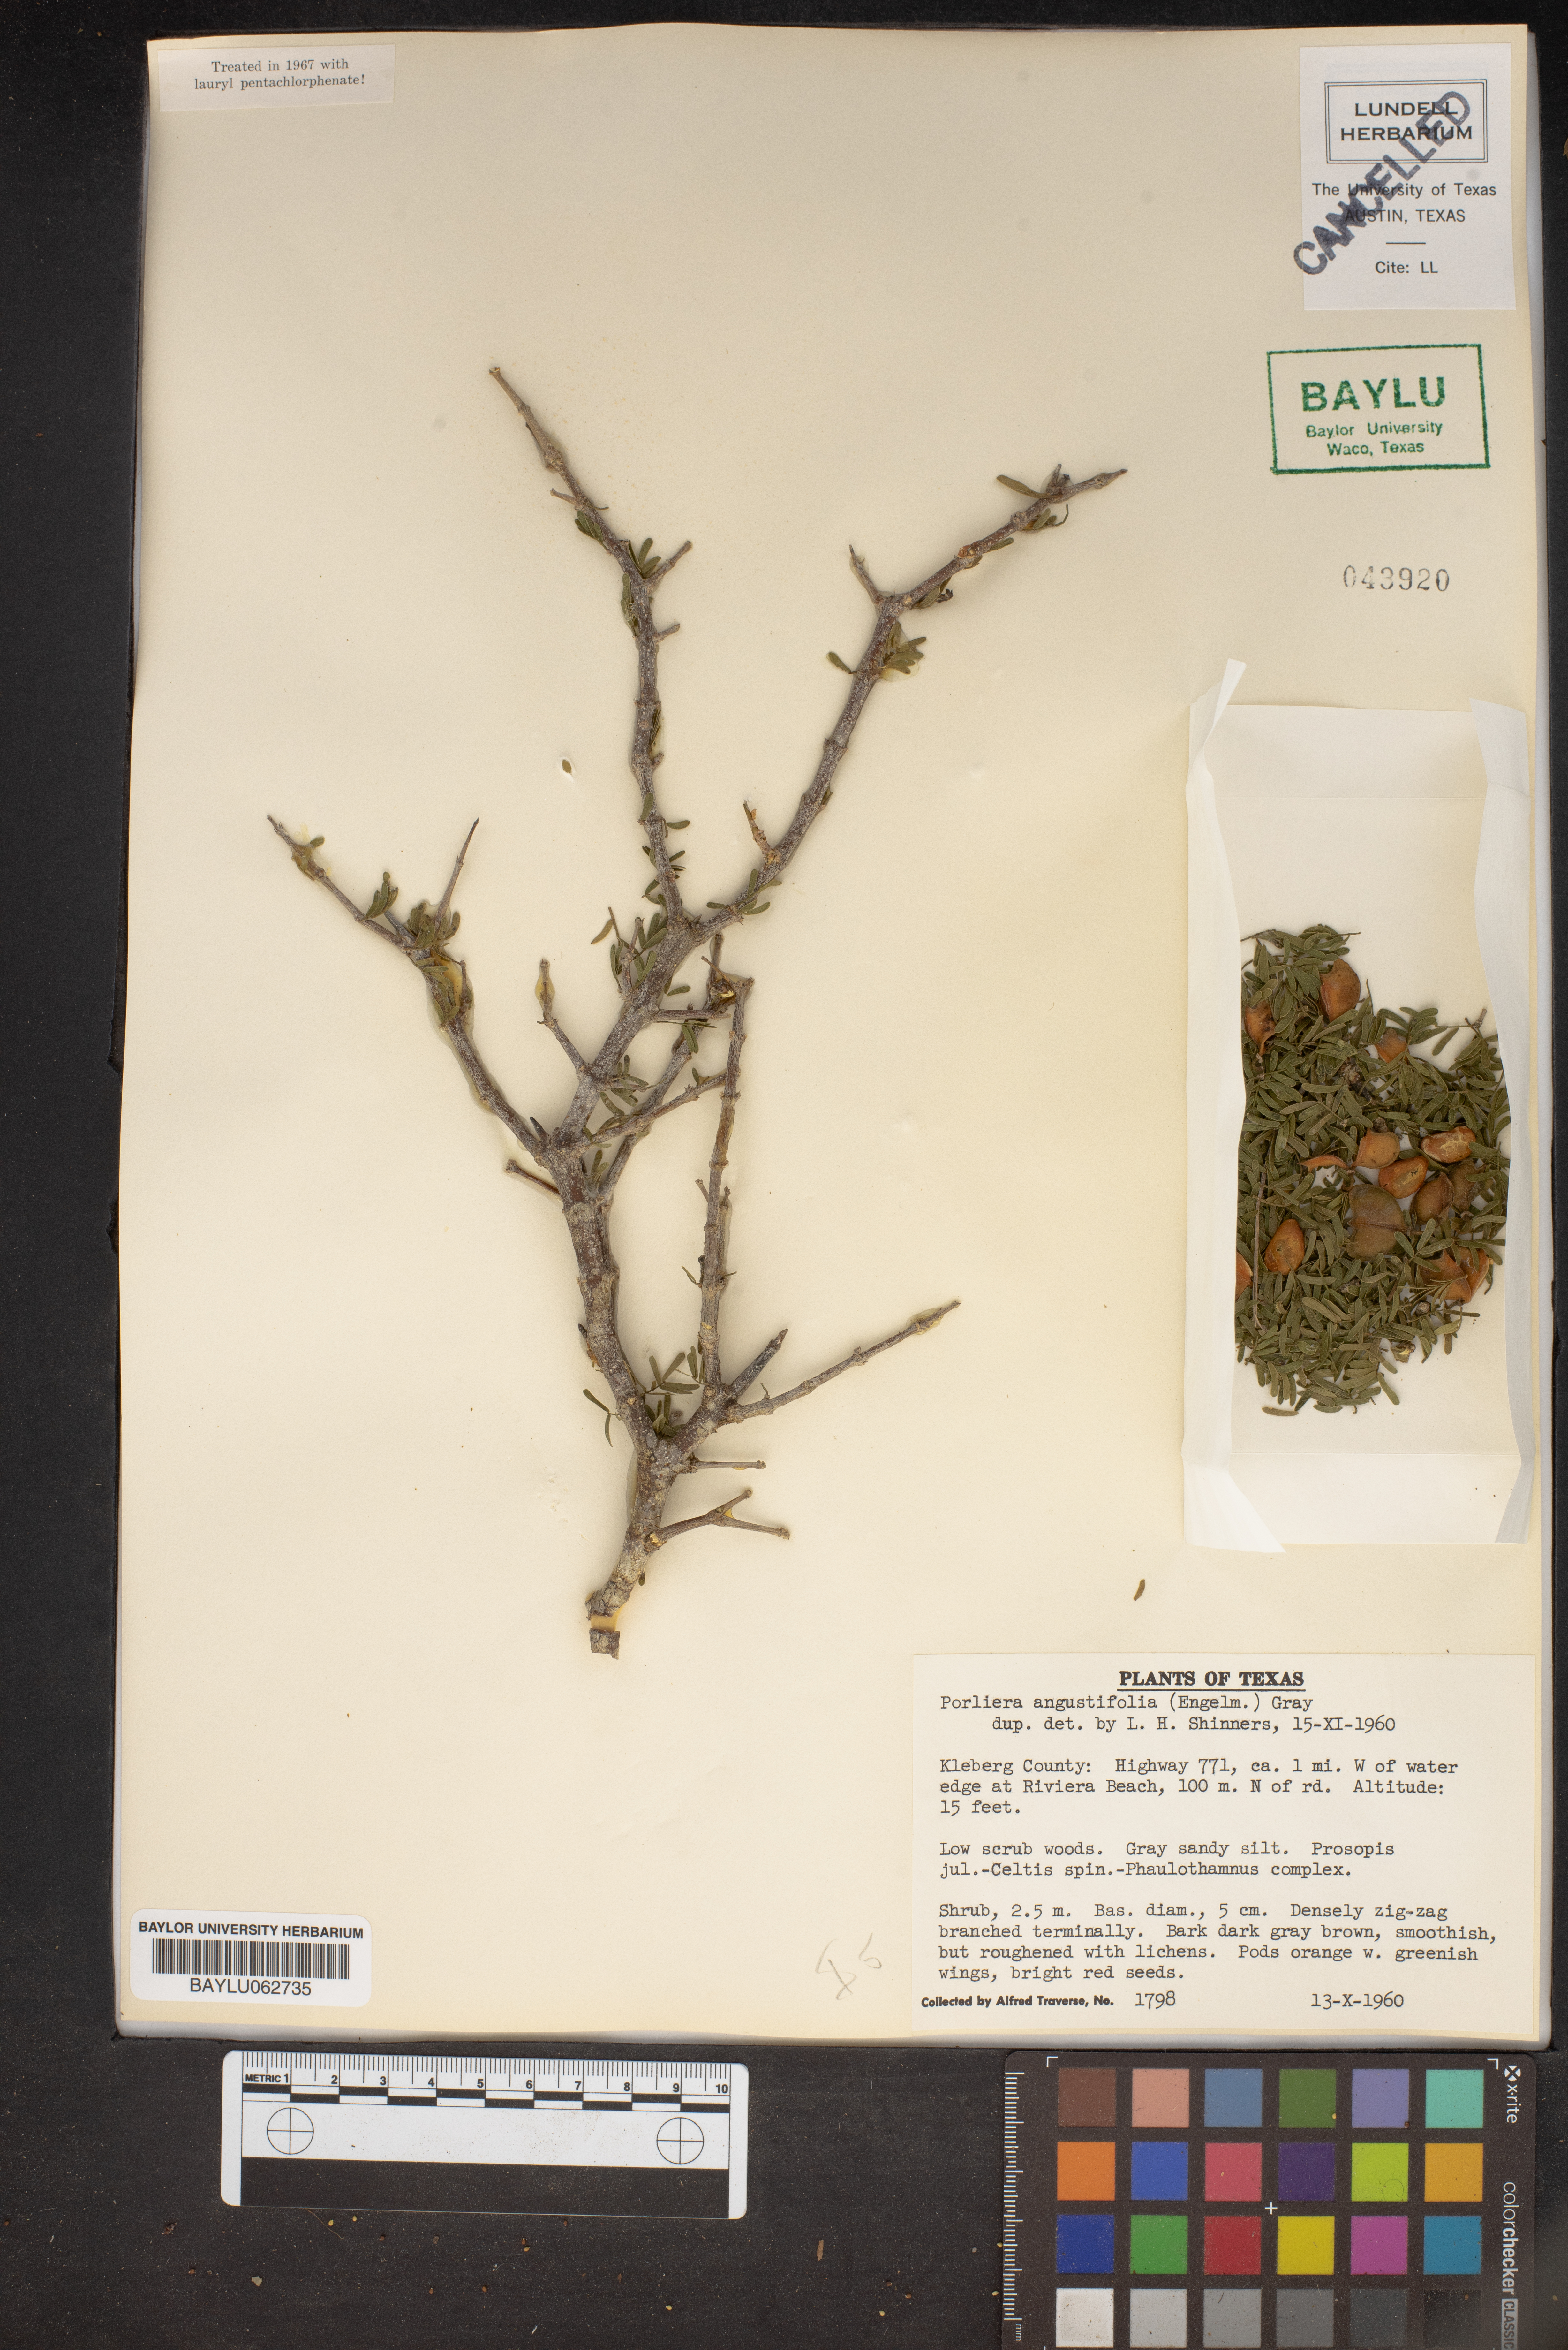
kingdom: Plantae
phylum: Tracheophyta
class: Magnoliopsida
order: Zygophyllales
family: Zygophyllaceae
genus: Porlieria
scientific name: Porlieria angustifolia
